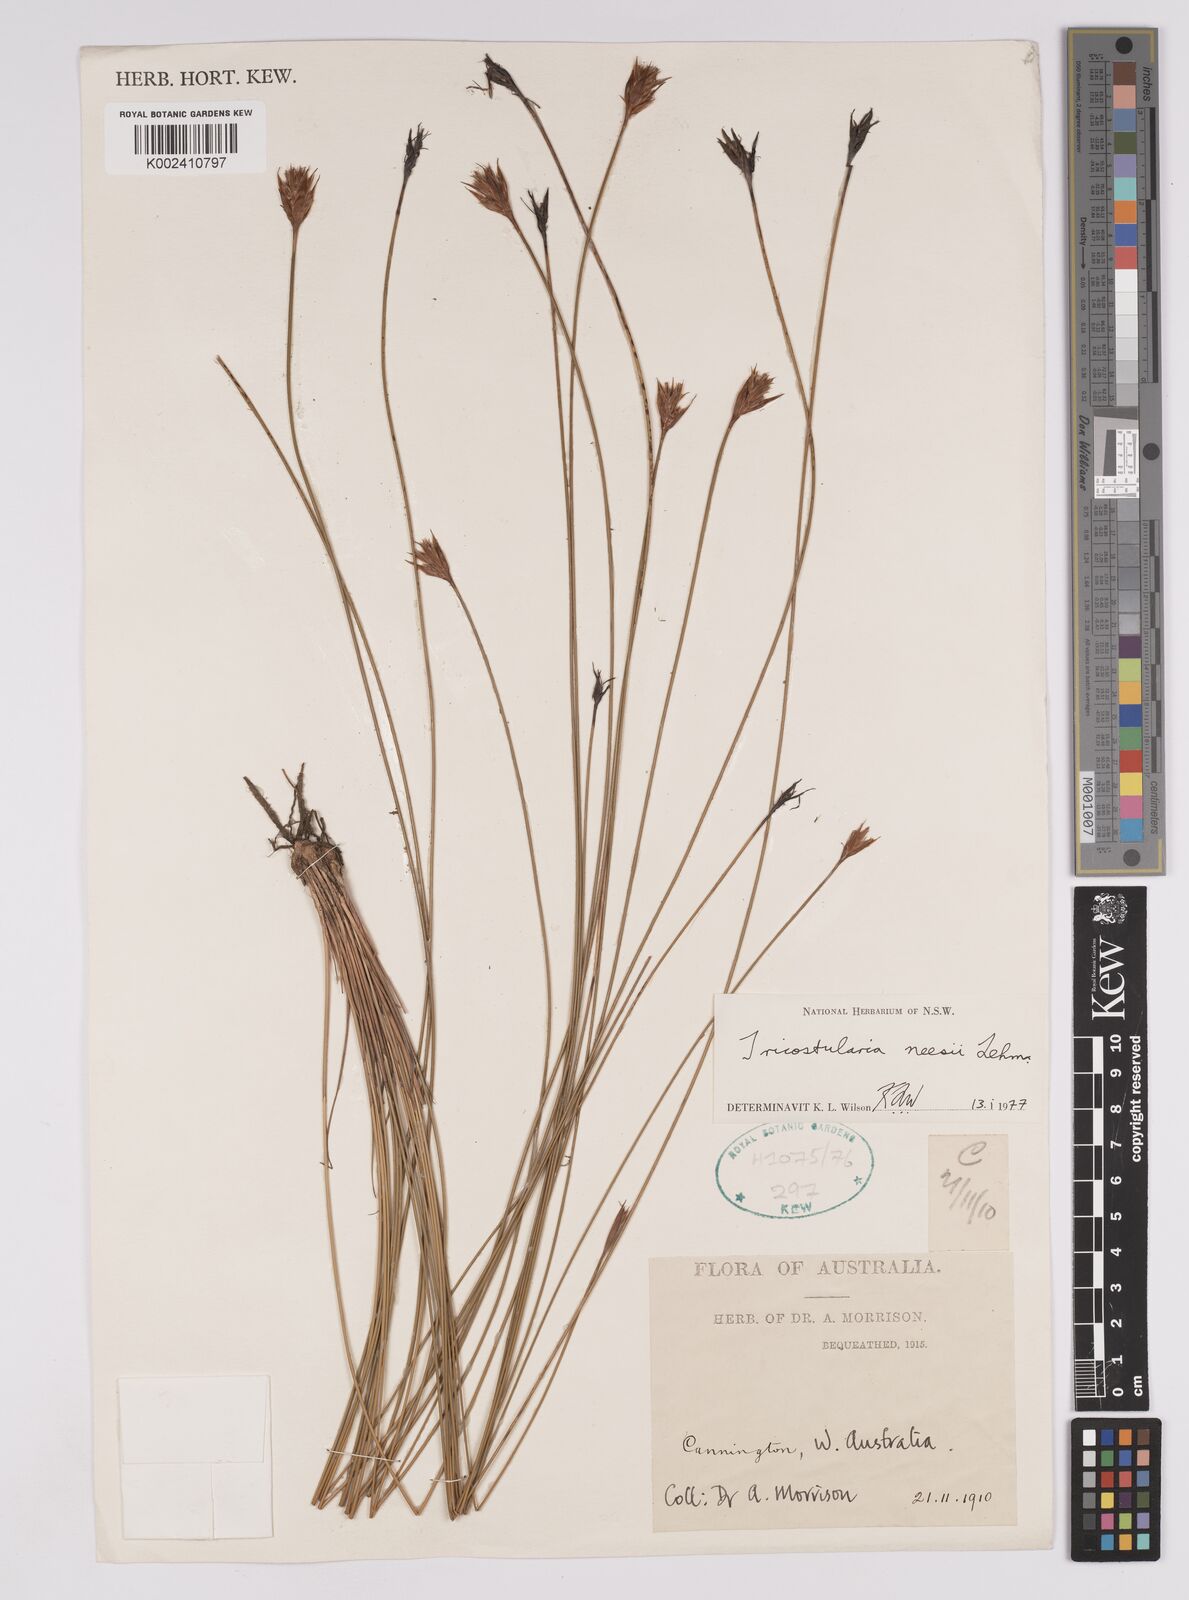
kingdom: Plantae
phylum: Tracheophyta
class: Liliopsida
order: Poales
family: Cyperaceae
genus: Tricostularia
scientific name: Tricostularia neesii
